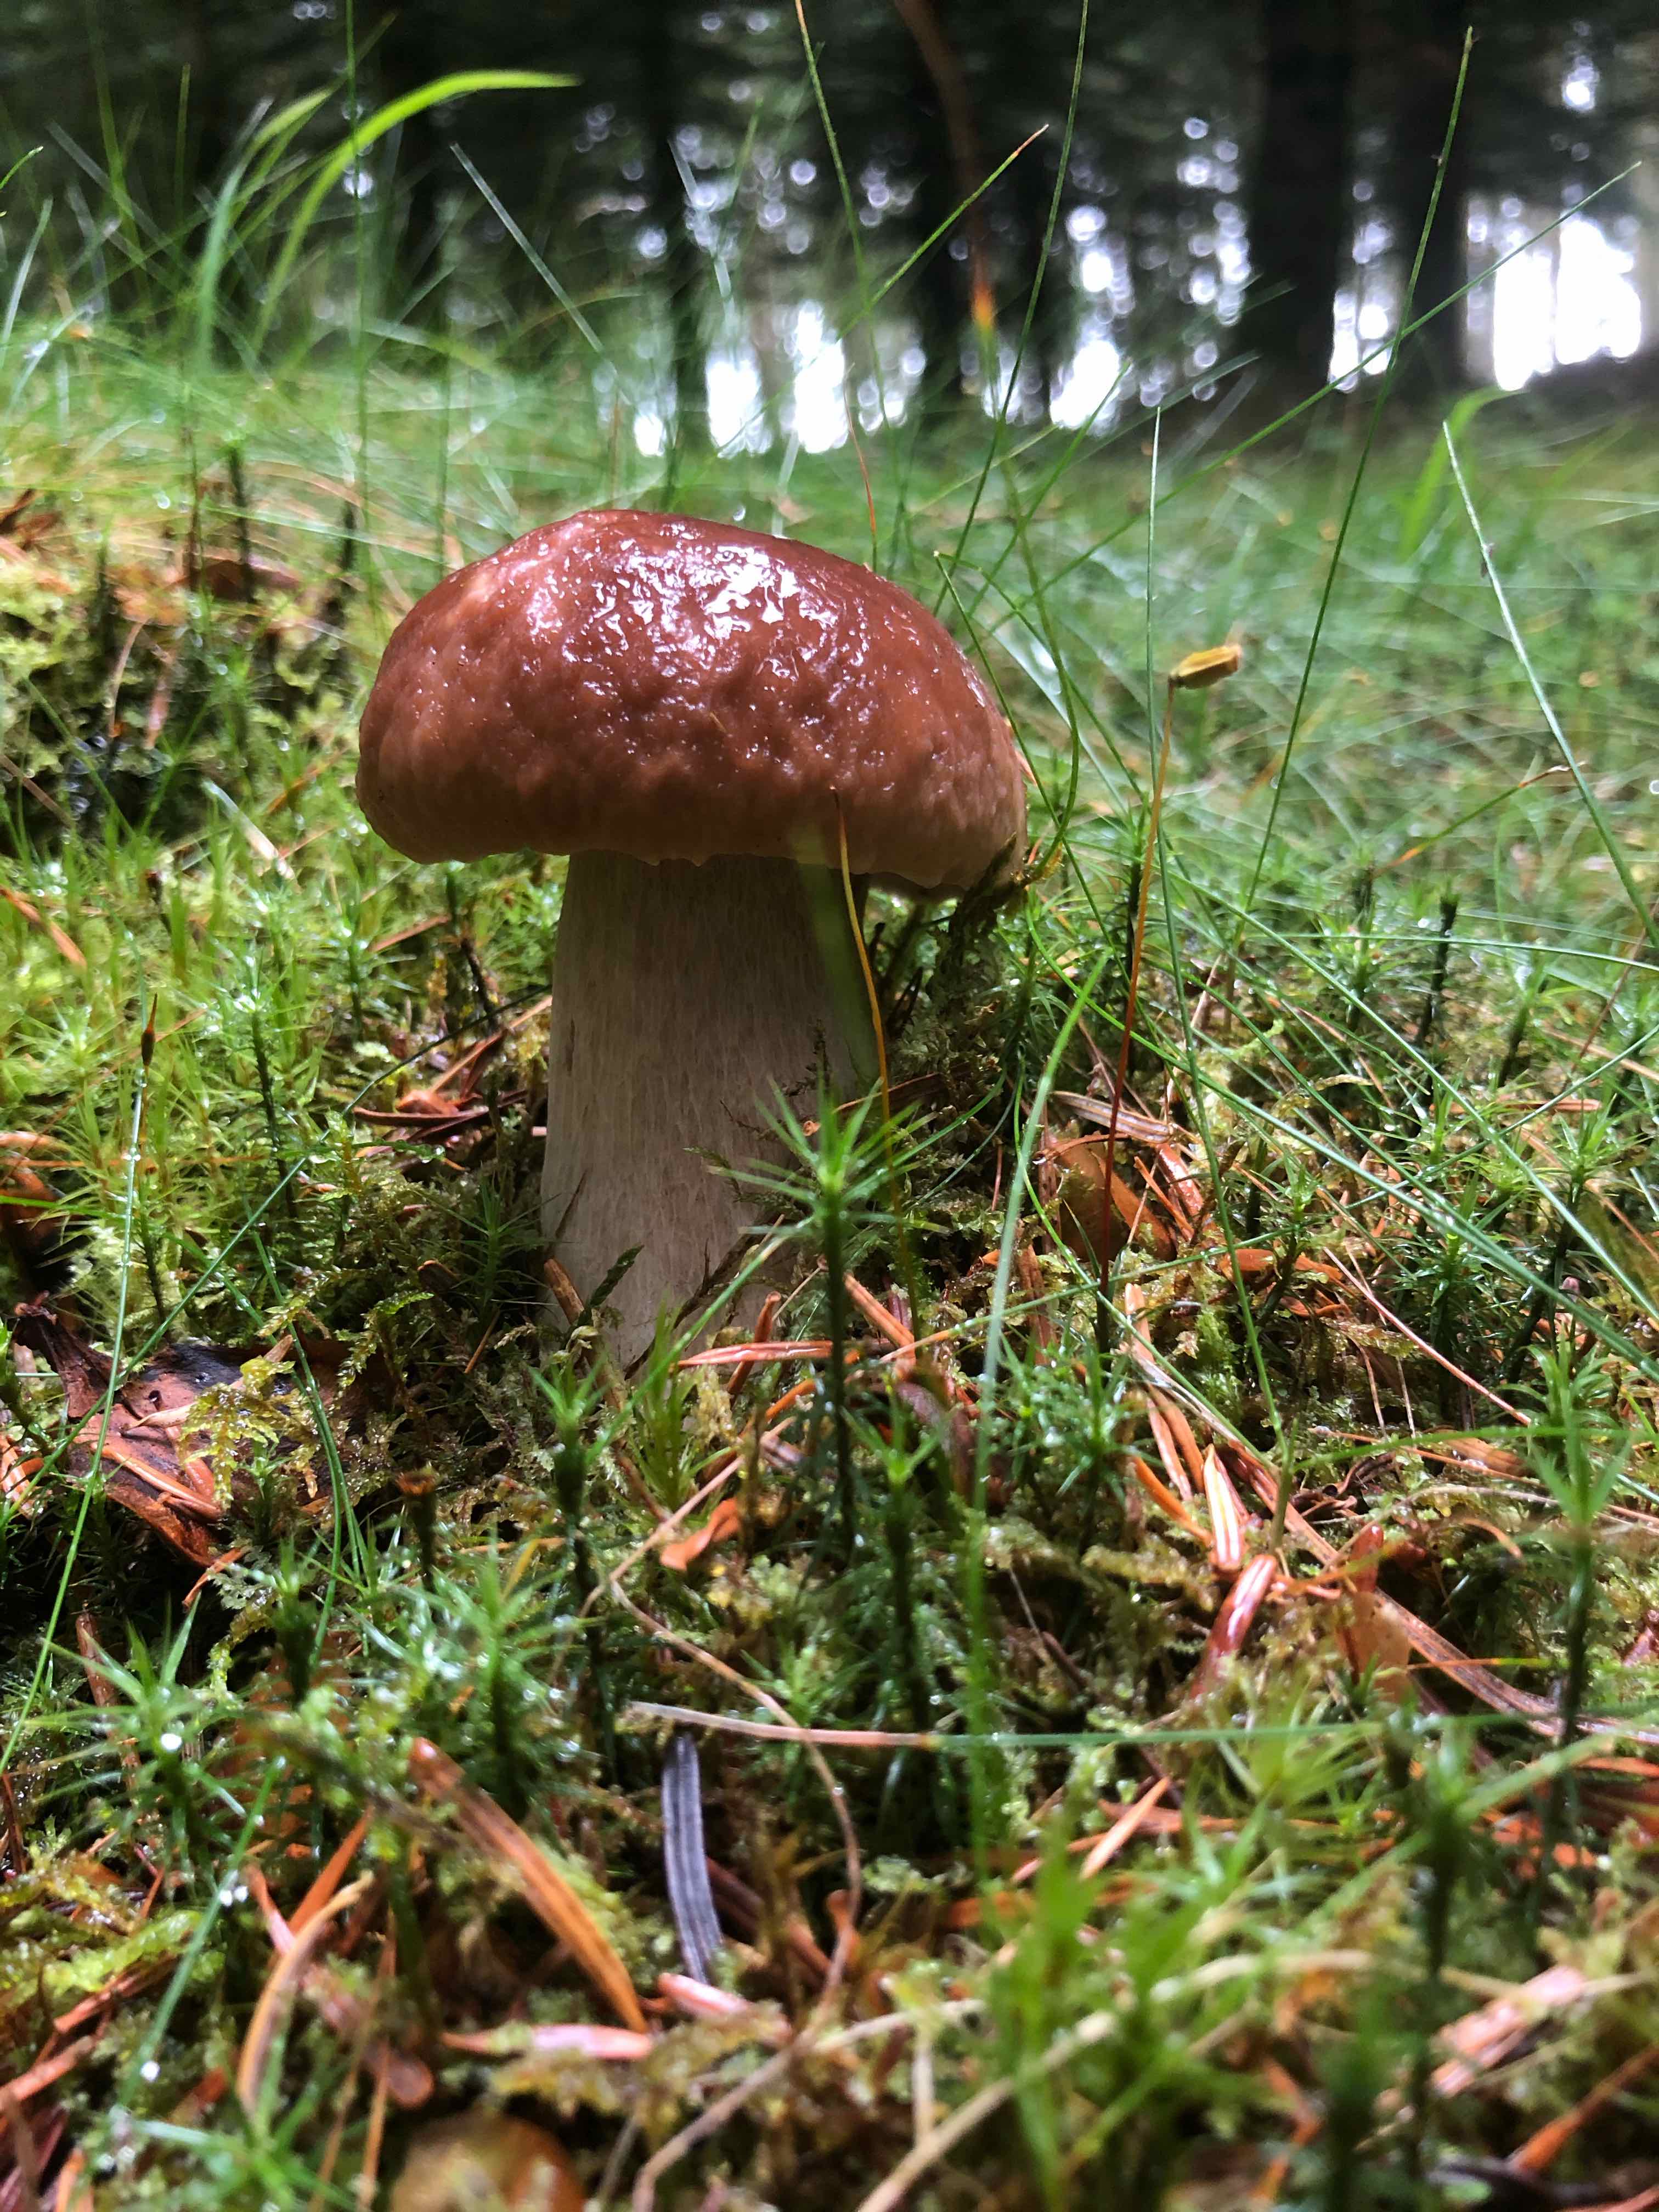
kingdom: Fungi
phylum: Basidiomycota
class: Agaricomycetes
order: Boletales
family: Boletaceae
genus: Boletus
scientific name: Boletus edulis
